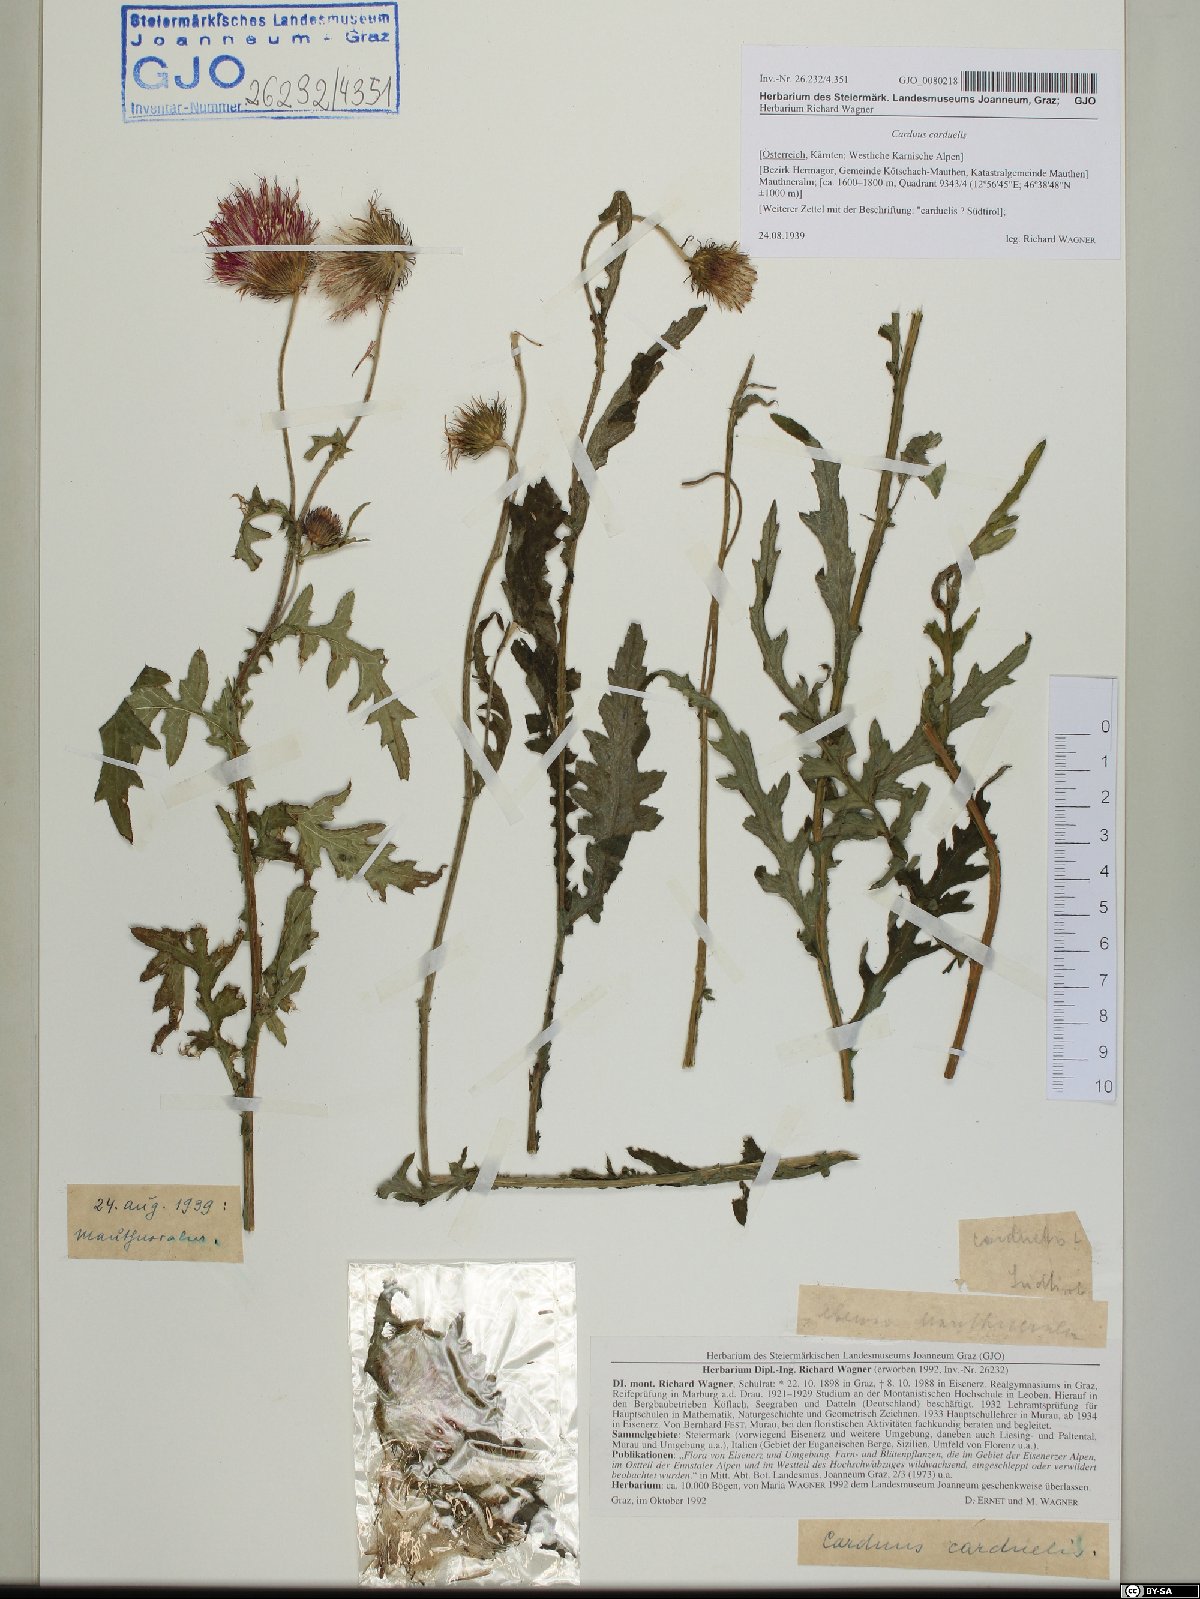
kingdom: Plantae
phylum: Tracheophyta
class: Magnoliopsida
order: Asterales
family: Asteraceae
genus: Carduus
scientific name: Carduus carduelis
